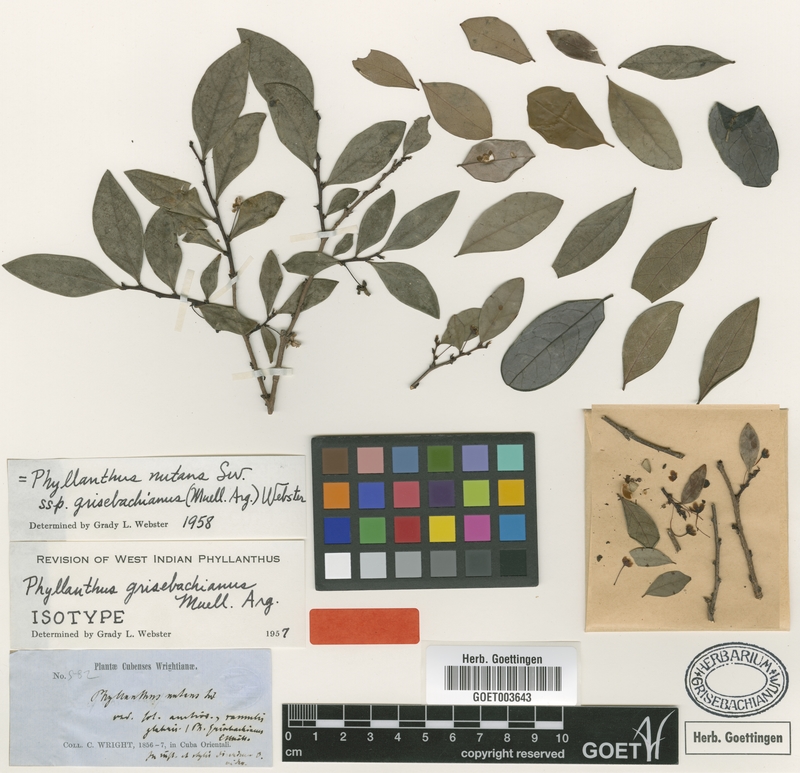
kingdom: Plantae
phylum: Tracheophyta
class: Magnoliopsida
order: Malpighiales
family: Phyllanthaceae
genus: Phyllanthus
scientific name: Phyllanthus nutans
